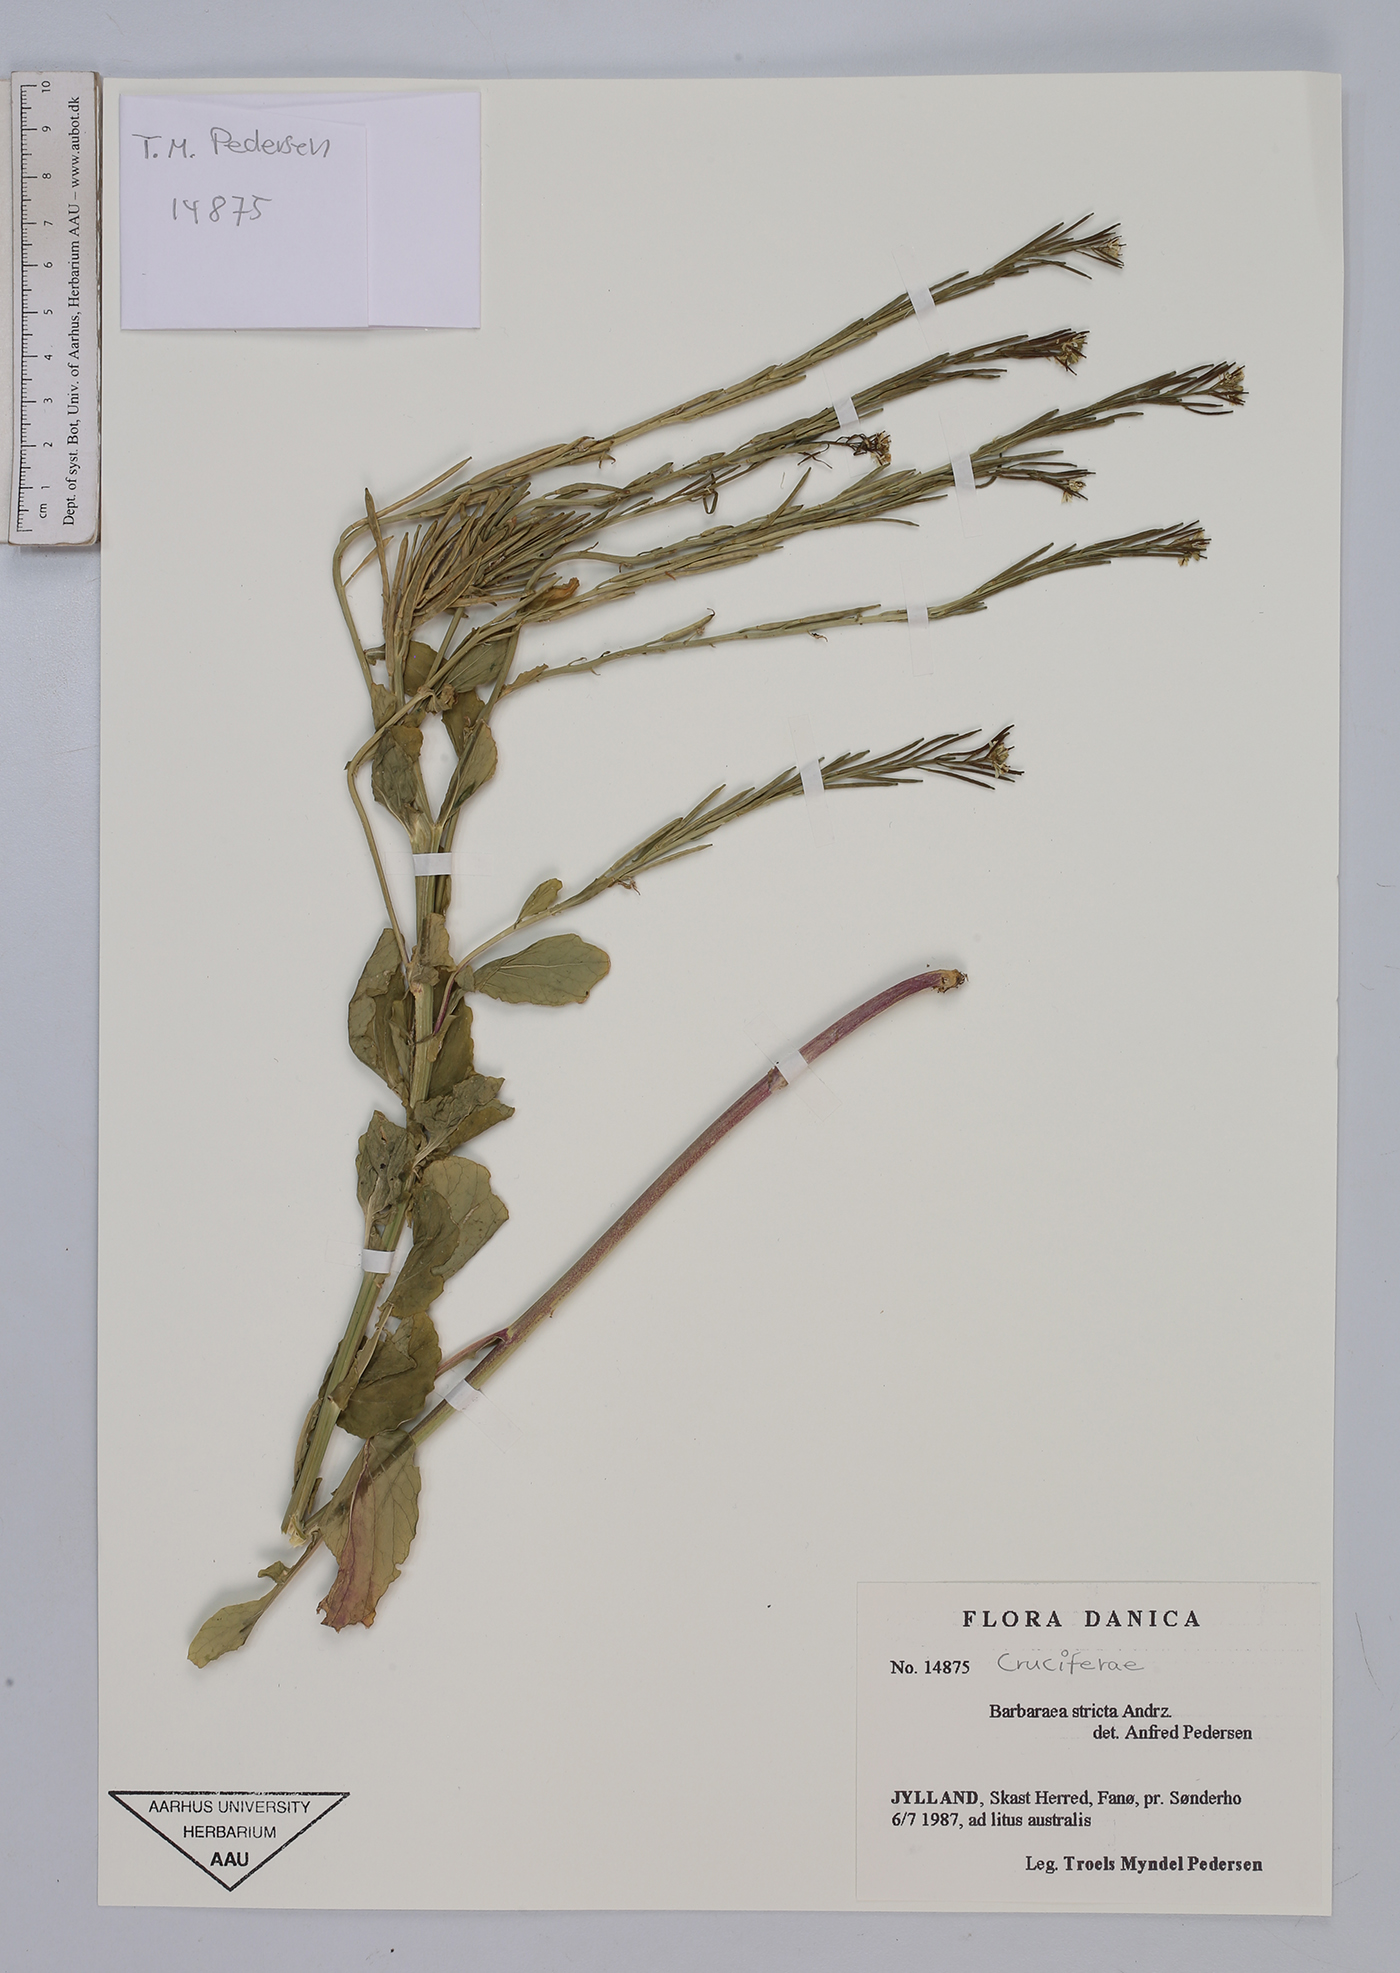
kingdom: Plantae
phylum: Tracheophyta
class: Magnoliopsida
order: Brassicales
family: Brassicaceae
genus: Barbarea
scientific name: Barbarea stricta
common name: Small-flowered winter-cress
